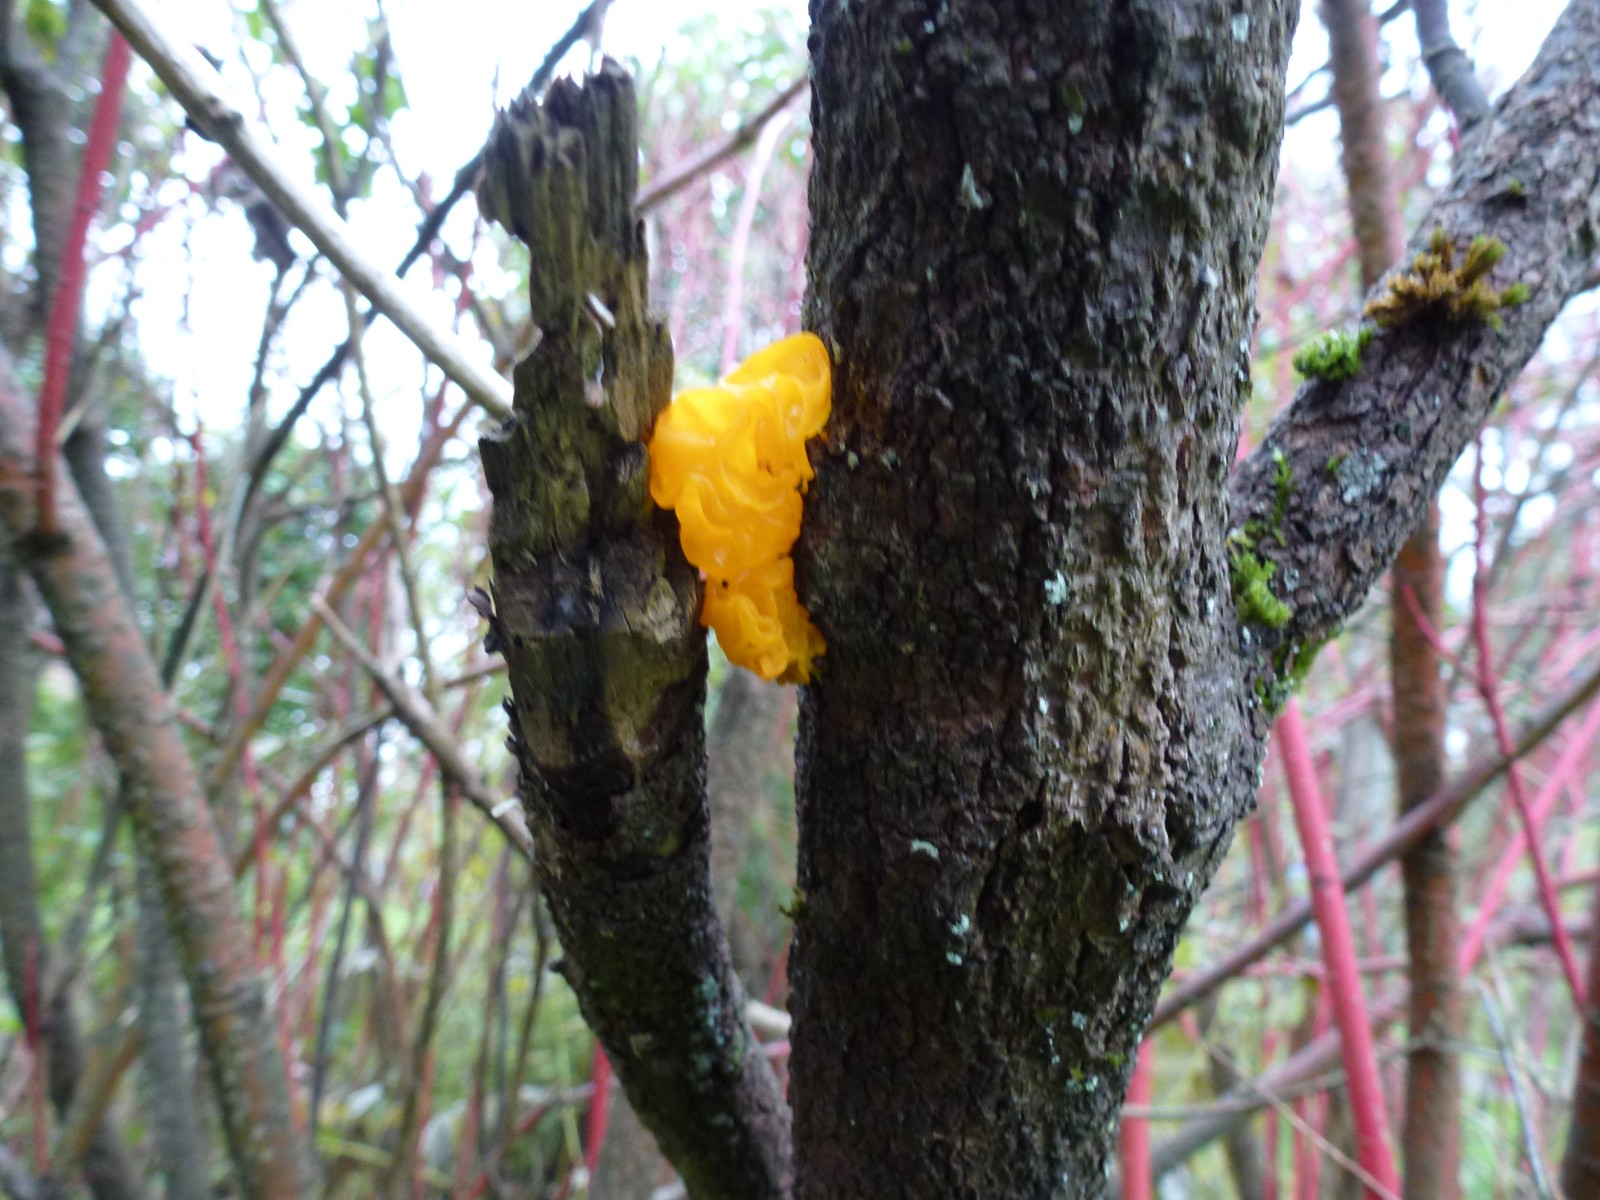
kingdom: Fungi
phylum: Basidiomycota
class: Tremellomycetes
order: Tremellales
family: Tremellaceae
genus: Tremella
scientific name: Tremella mesenterica
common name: gul bævresvamp
